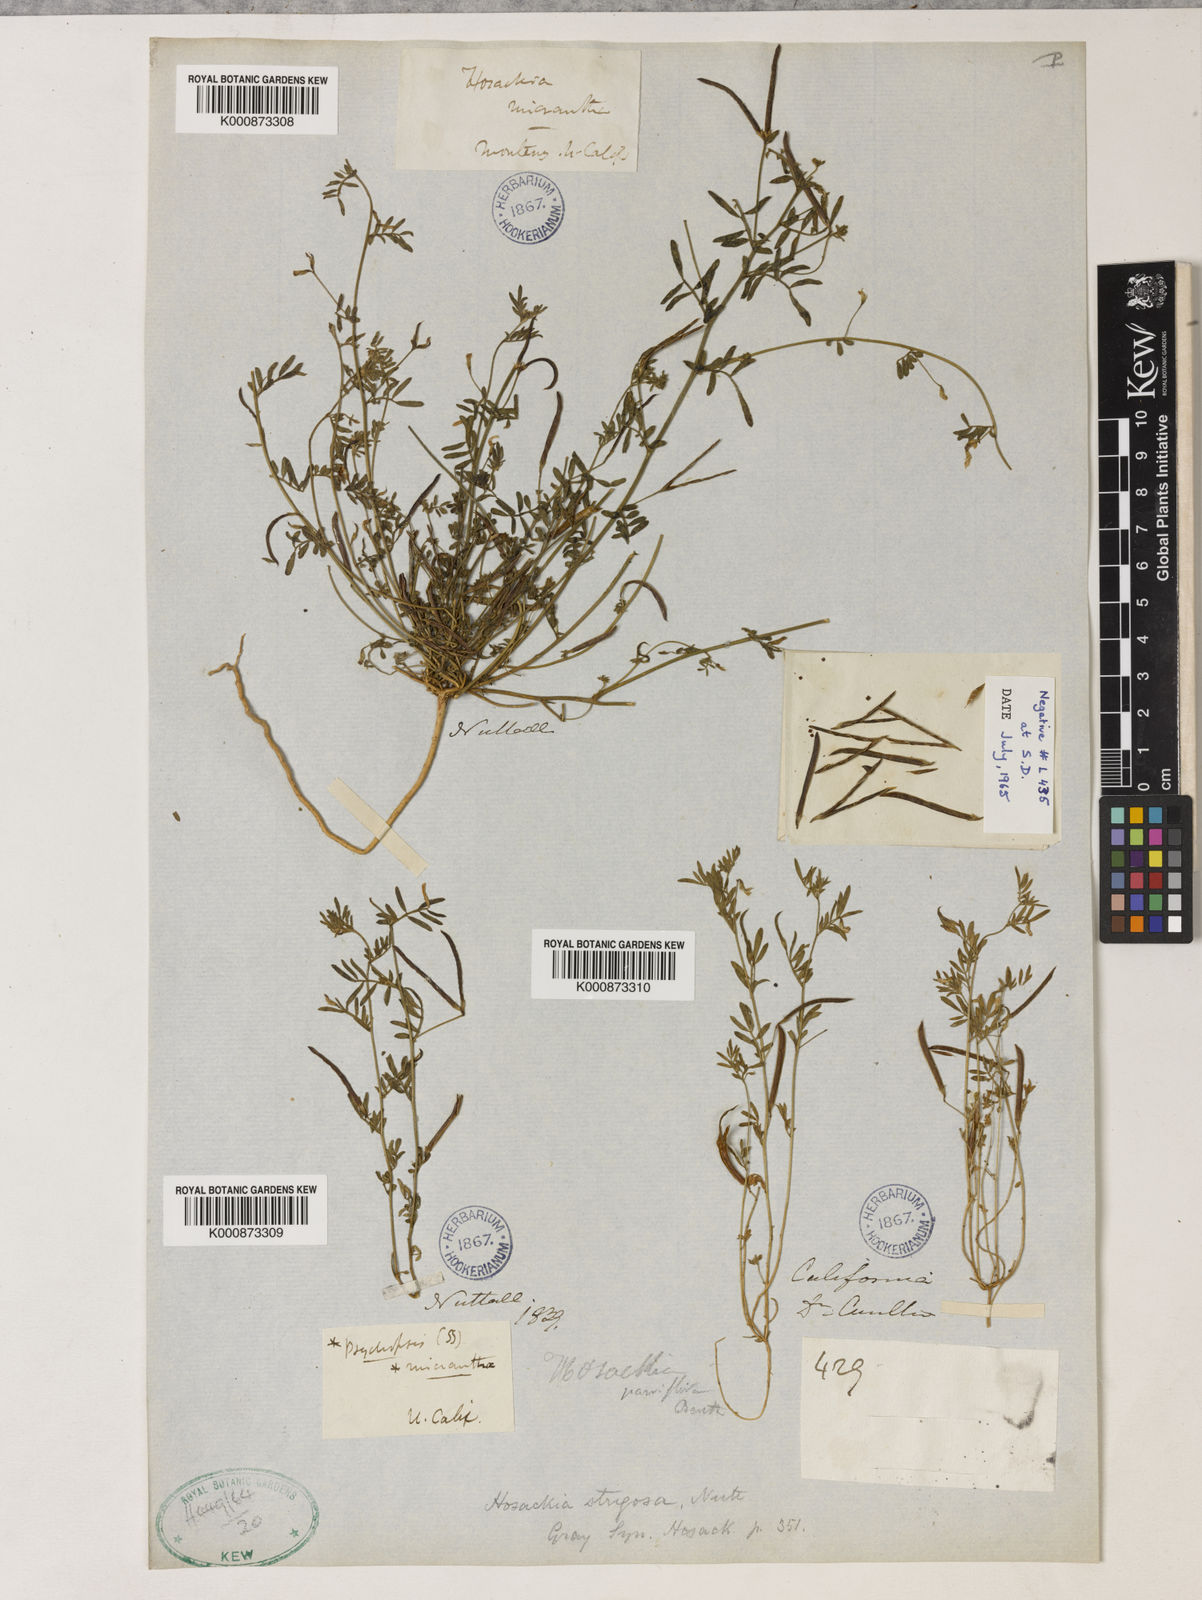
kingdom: Plantae
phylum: Tracheophyta
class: Magnoliopsida
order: Fabales
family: Fabaceae
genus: Acmispon
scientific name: Acmispon strigosus
